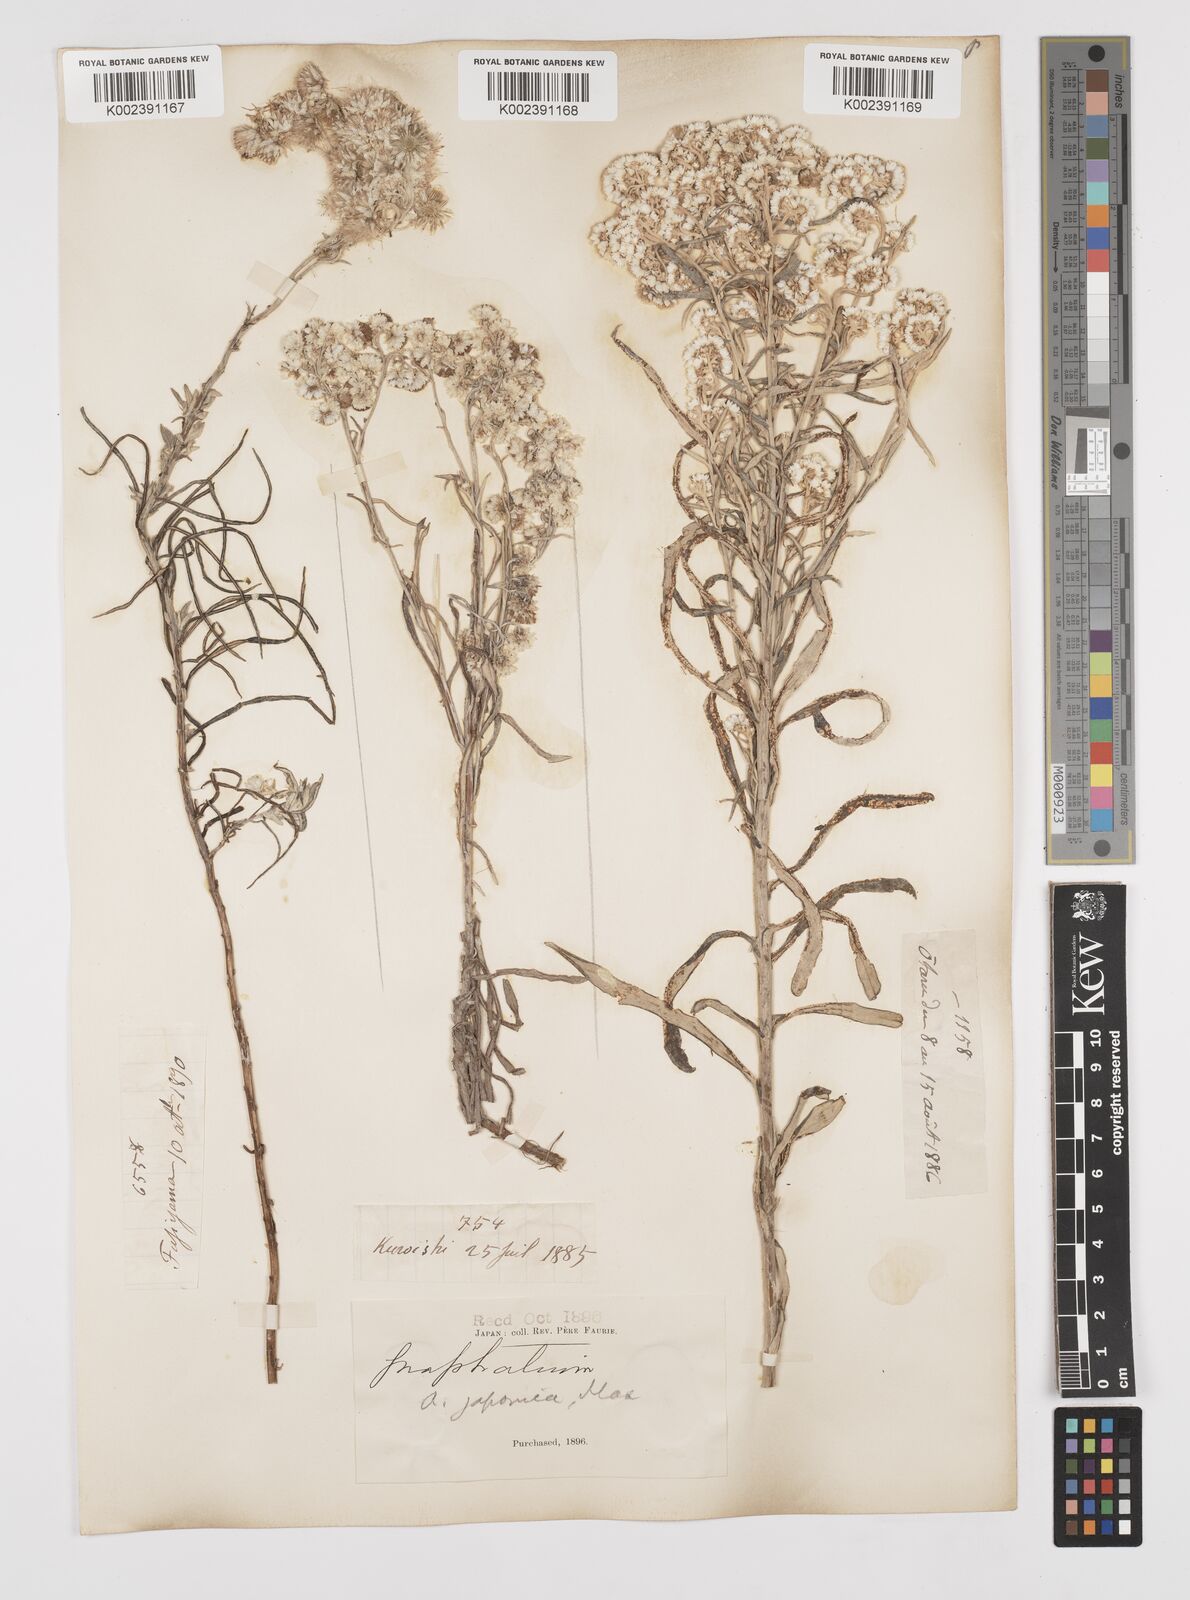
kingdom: Plantae
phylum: Tracheophyta
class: Magnoliopsida
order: Asterales
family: Asteraceae
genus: Anaphalis
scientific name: Anaphalis margaritacea
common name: Pearly everlasting
